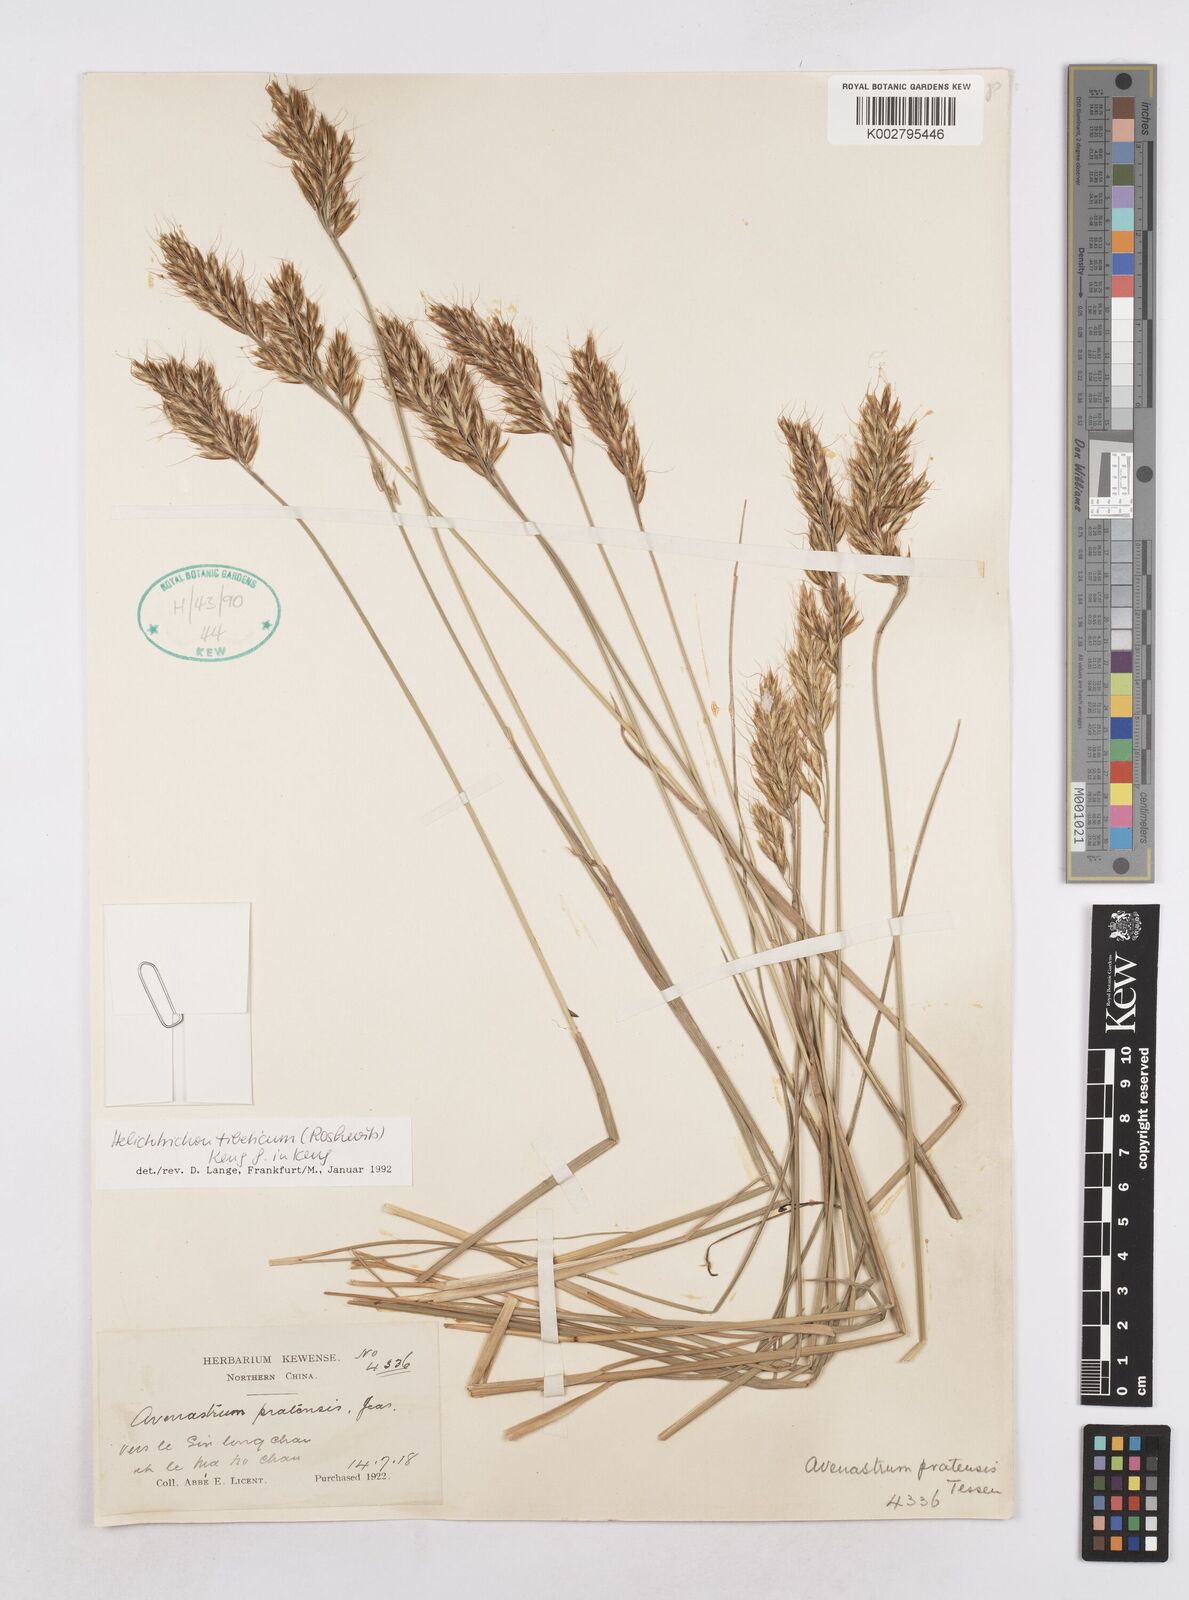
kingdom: Plantae
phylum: Tracheophyta
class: Liliopsida
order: Poales
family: Poaceae
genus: Helictotrichon
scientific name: Helictotrichon tibeticum
